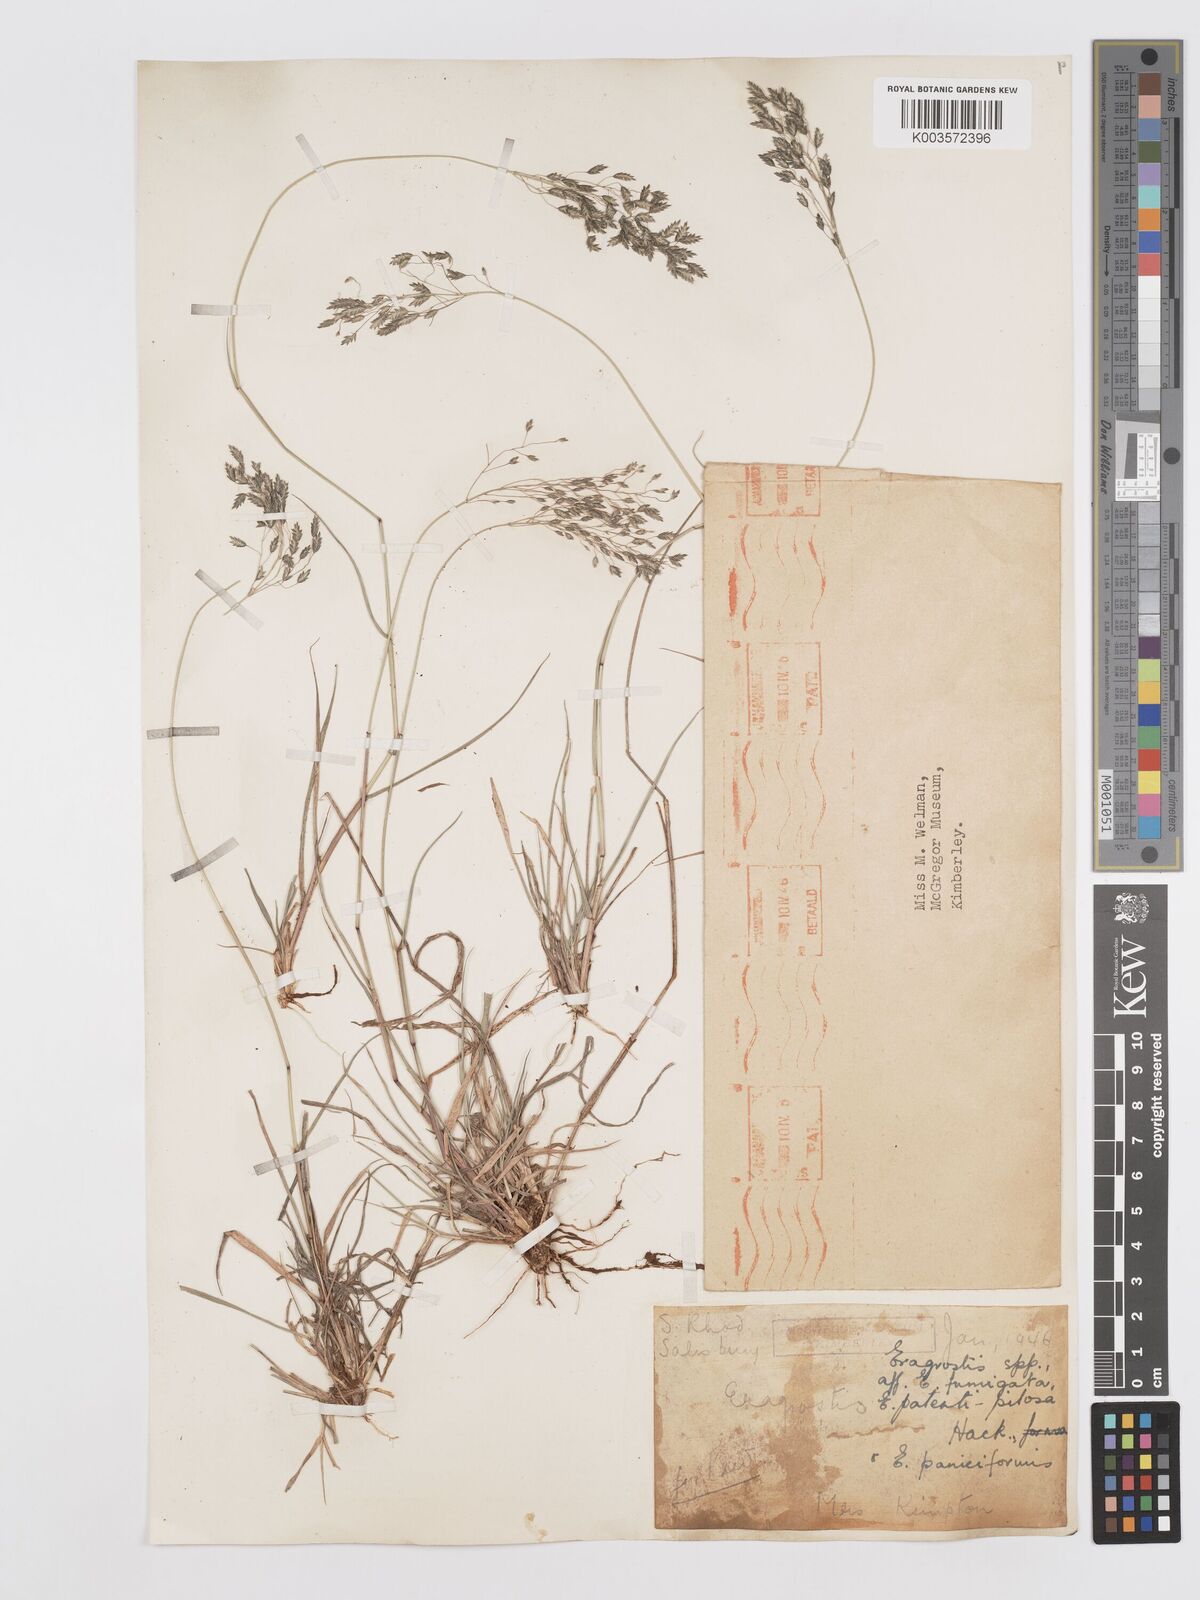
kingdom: Plantae
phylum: Tracheophyta
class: Liliopsida
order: Poales
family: Poaceae
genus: Eragrostis
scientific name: Eragrostis
